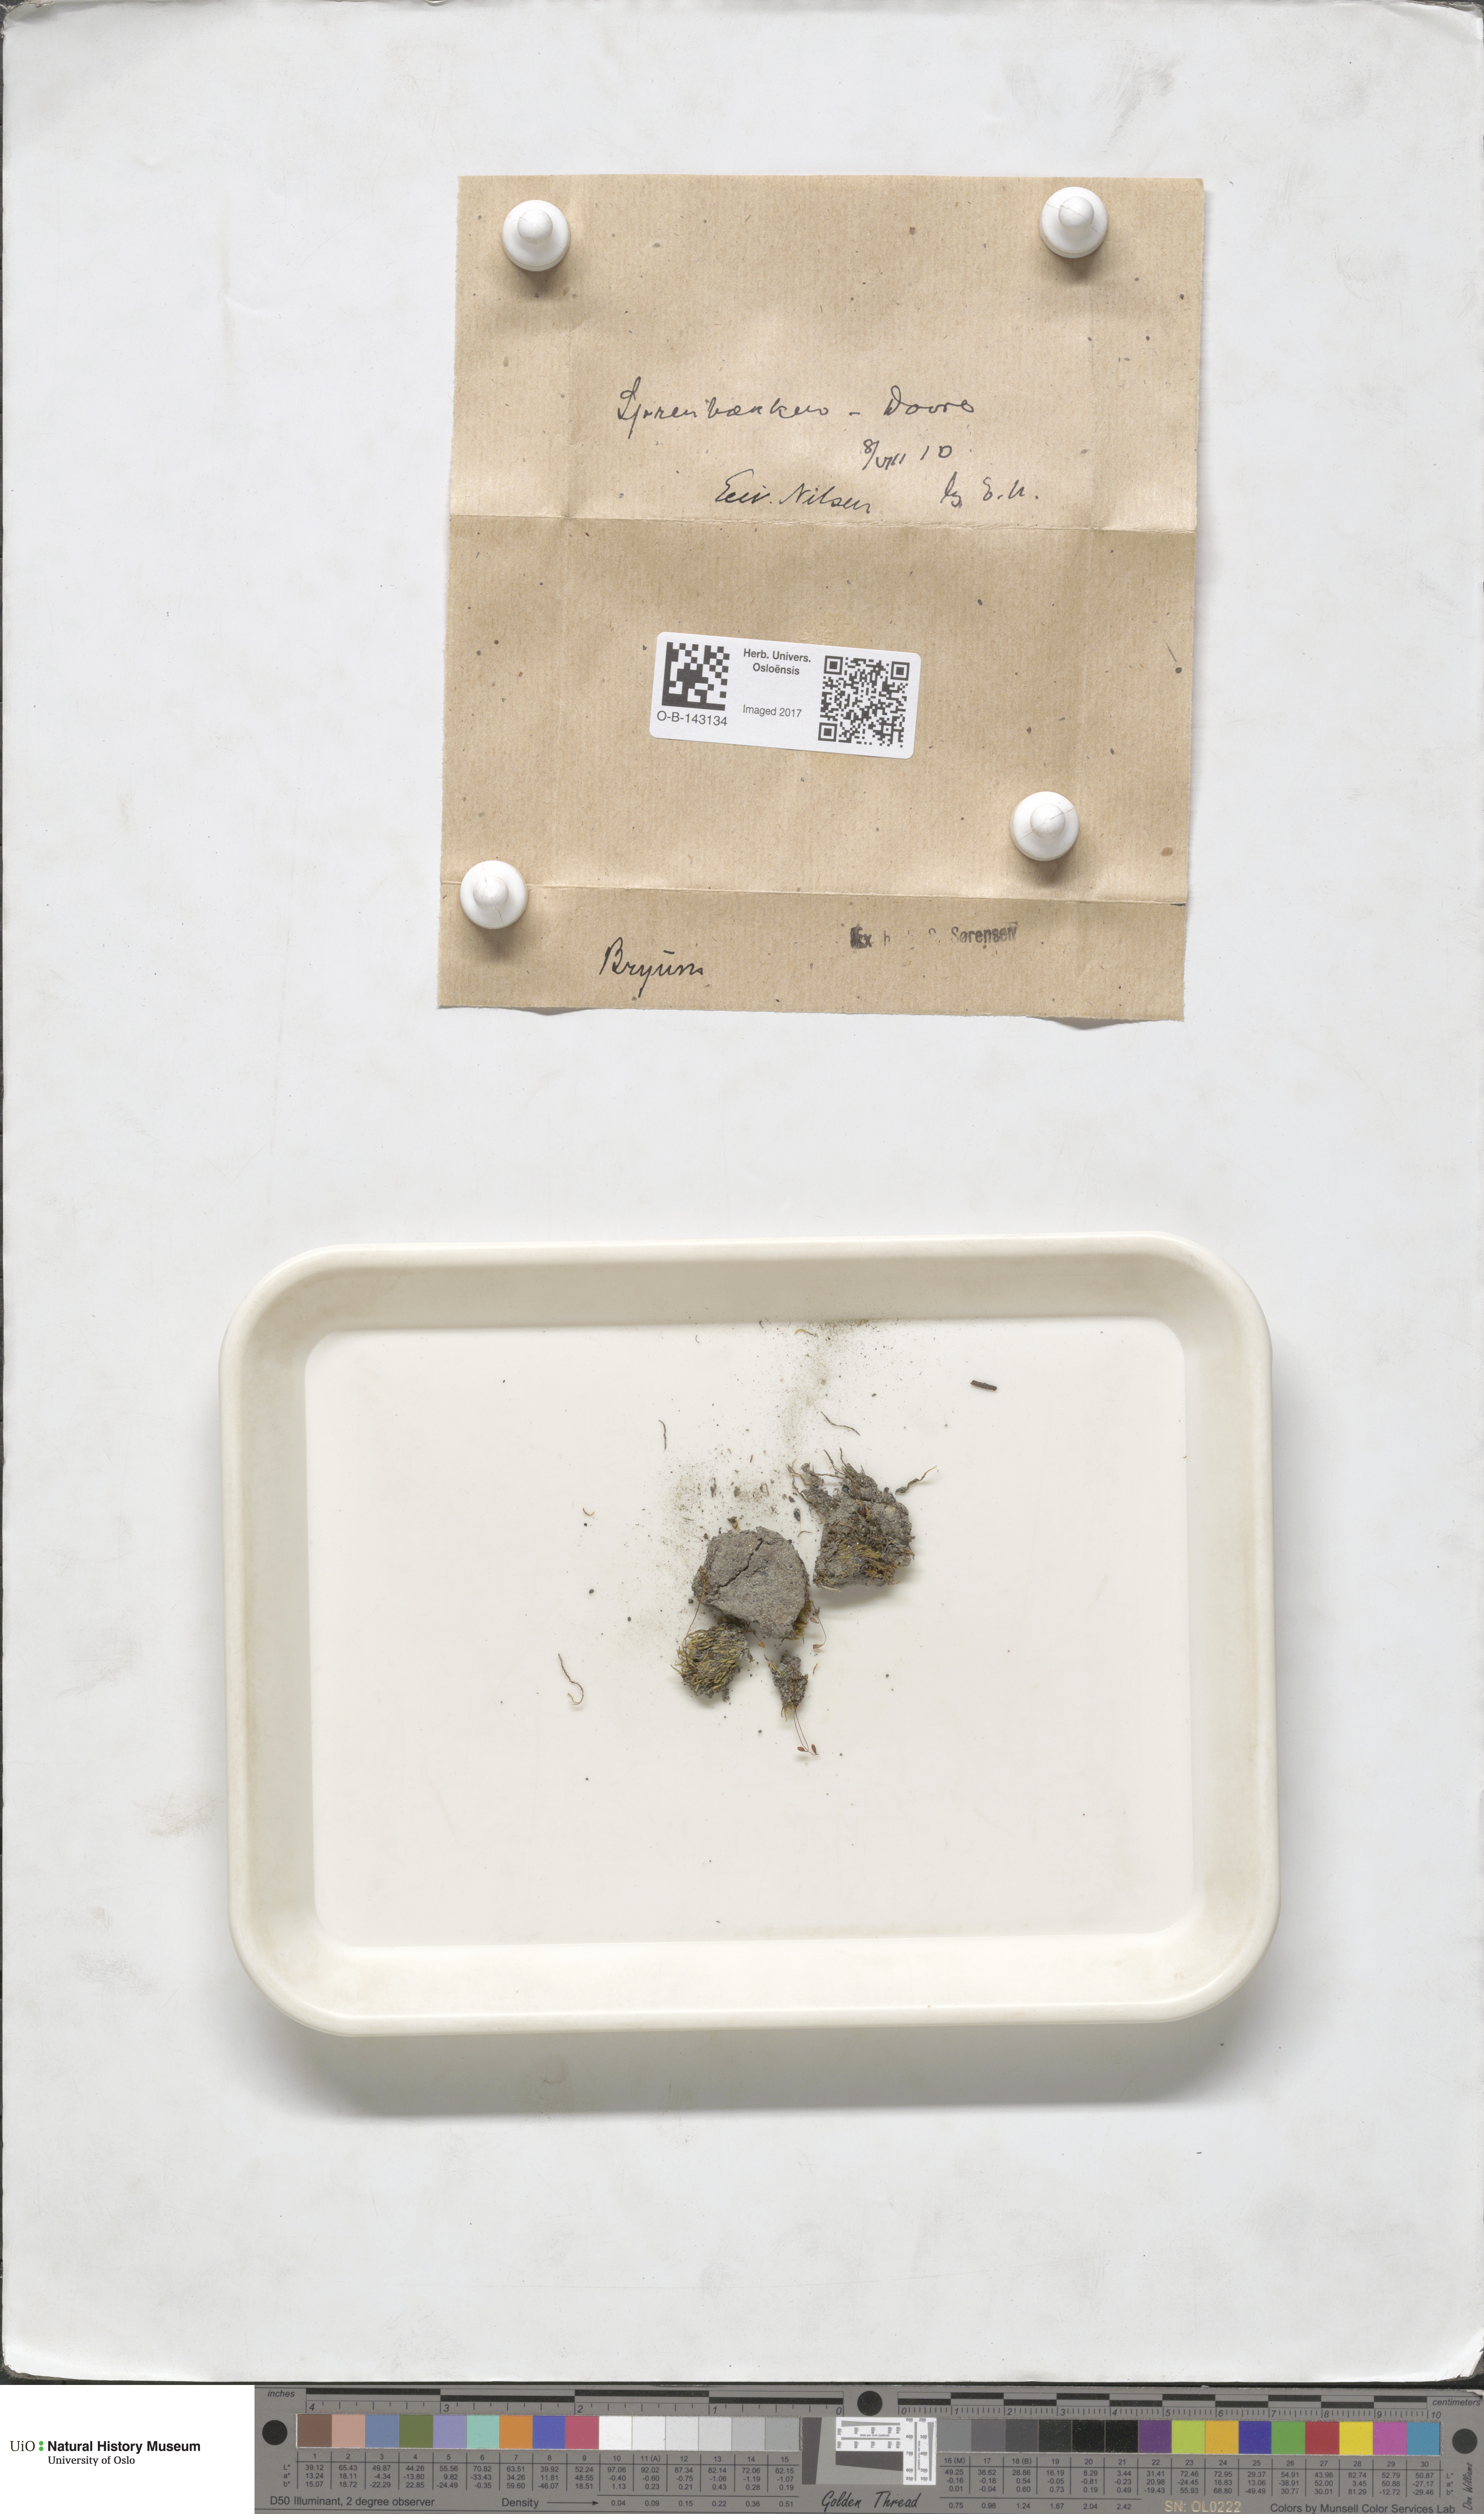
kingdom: Plantae
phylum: Bryophyta
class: Bryopsida
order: Bryales
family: Bryaceae
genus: Bryum
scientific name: Bryum
